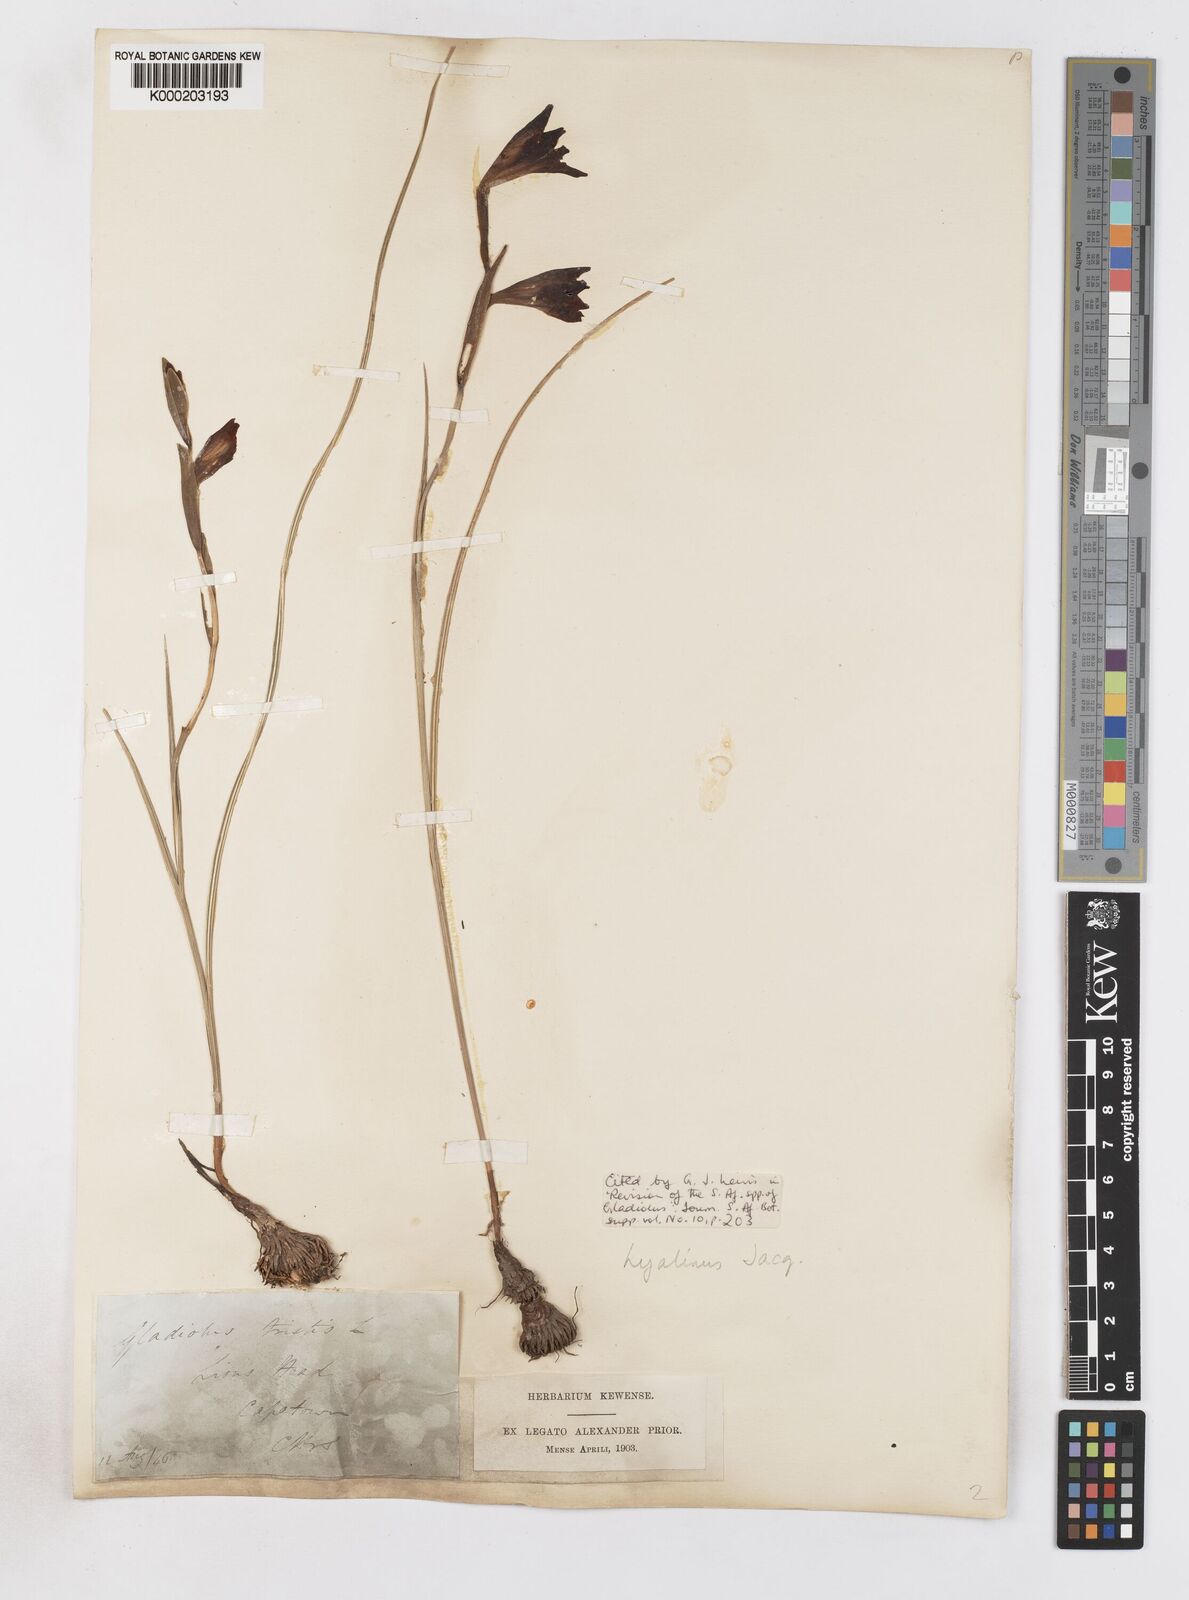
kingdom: Plantae
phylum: Tracheophyta
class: Liliopsida
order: Asparagales
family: Iridaceae
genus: Gladiolus
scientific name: Gladiolus hyalinus
